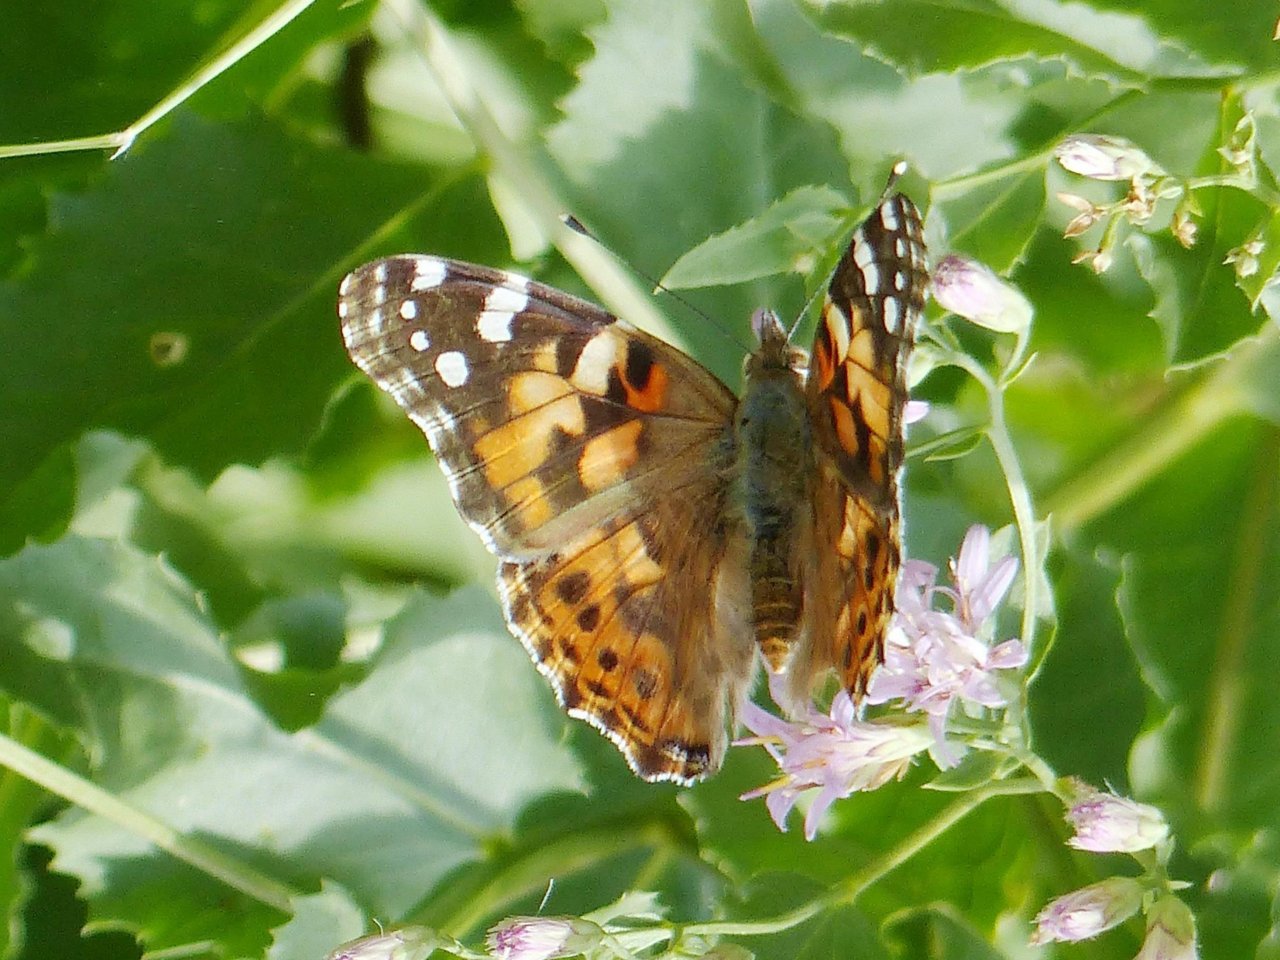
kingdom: Animalia
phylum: Arthropoda
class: Insecta
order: Lepidoptera
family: Nymphalidae
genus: Vanessa
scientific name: Vanessa cardui
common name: Painted Lady
